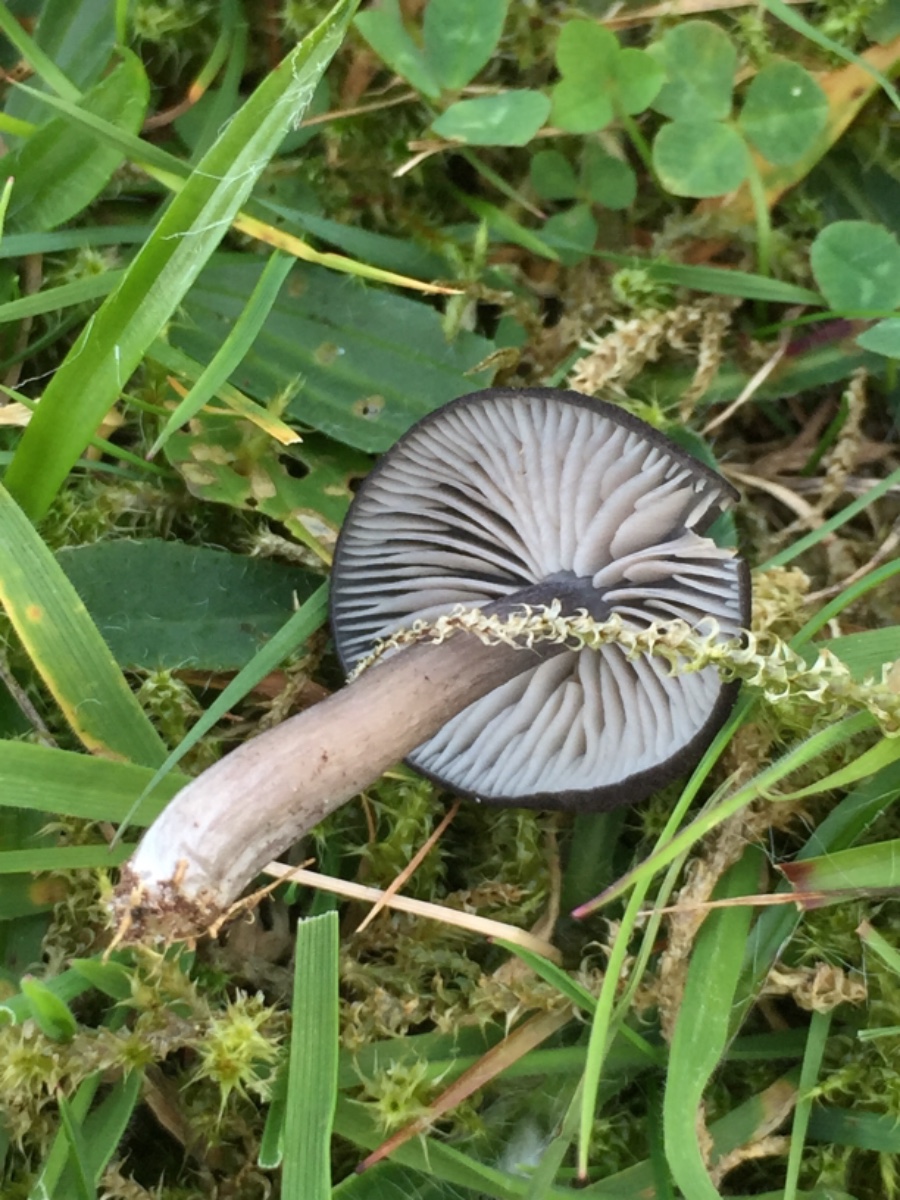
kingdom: Fungi
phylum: Basidiomycota
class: Agaricomycetes
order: Agaricales
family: Entolomataceae
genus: Entoloma
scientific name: Entoloma chalybeum
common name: blåbladet rødblad
